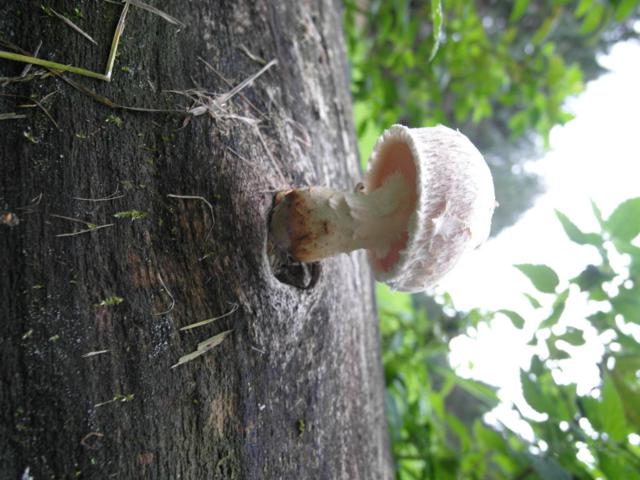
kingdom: Fungi
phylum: Basidiomycota
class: Agaricomycetes
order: Agaricales
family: Strophariaceae
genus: Pholiota
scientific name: Pholiota populnea
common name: poppel-kæmpeskælhat
